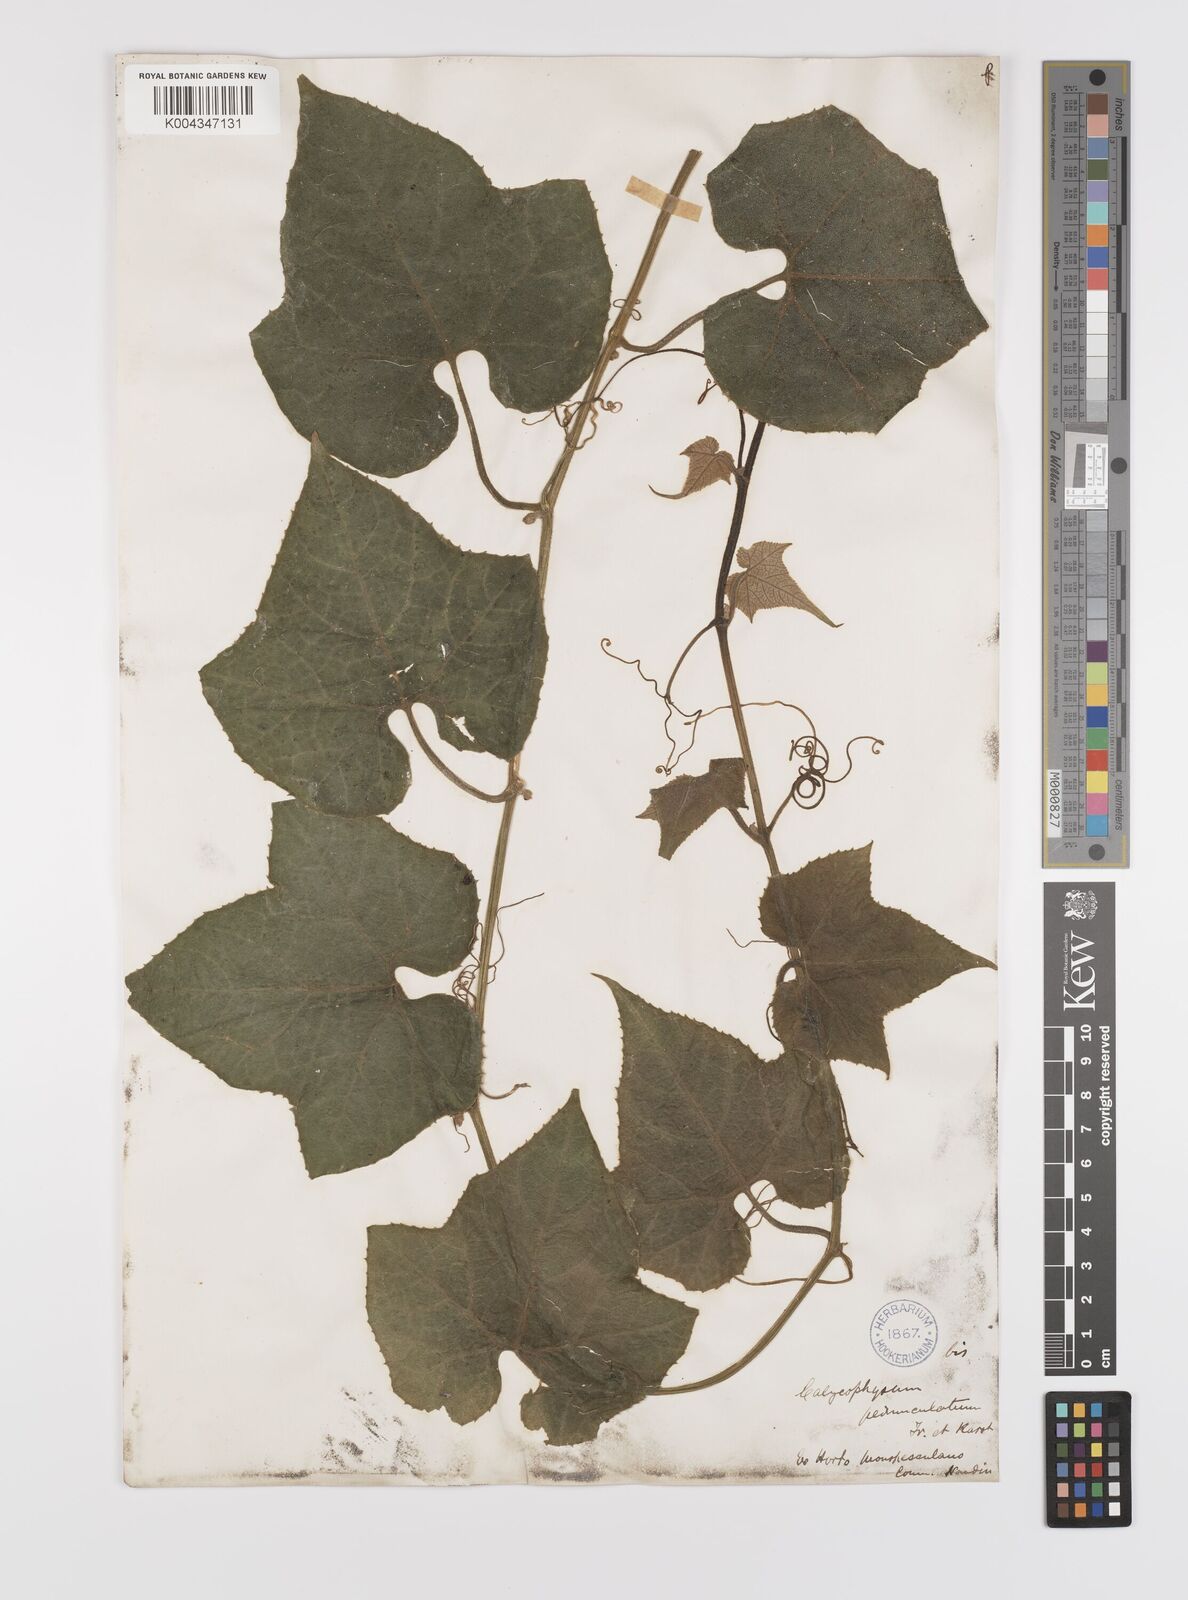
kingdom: Plantae
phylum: Tracheophyta
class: Magnoliopsida
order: Cucurbitales
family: Cucurbitaceae
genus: Calycophysum
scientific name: Calycophysum pedunculatum
